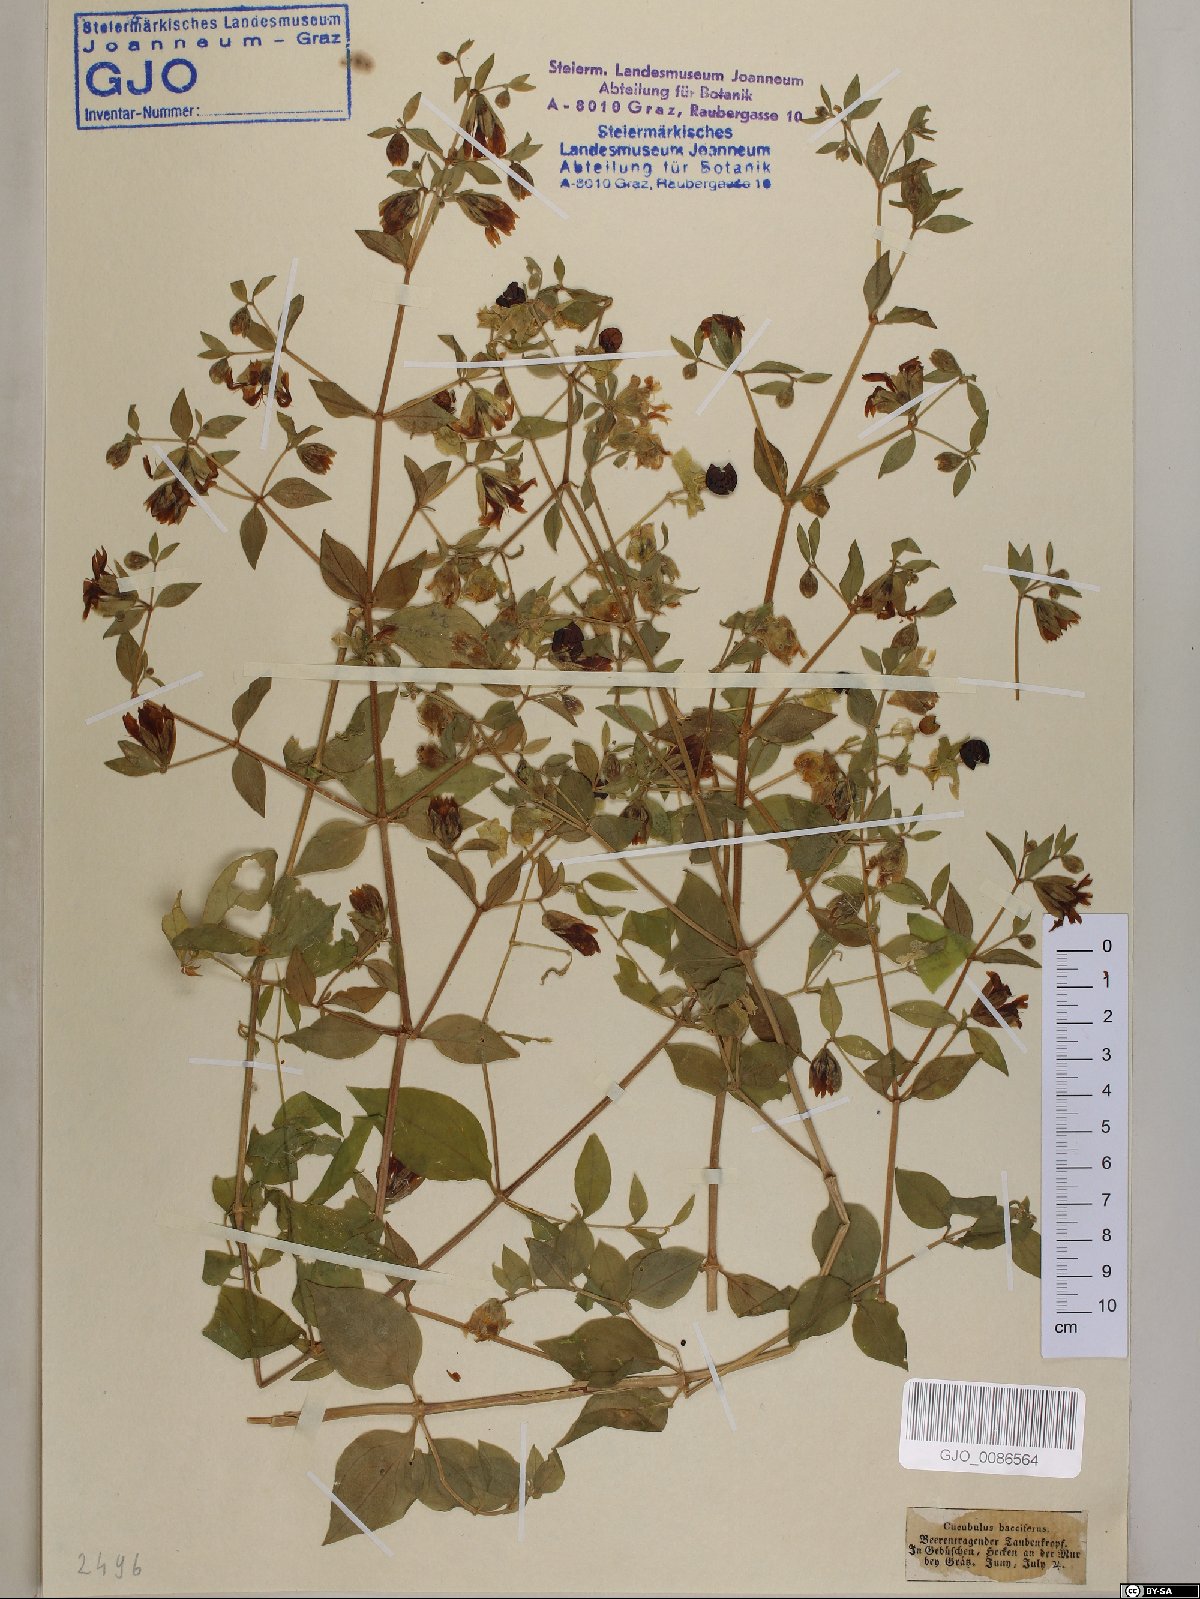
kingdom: Plantae
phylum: Tracheophyta
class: Magnoliopsida
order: Caryophyllales
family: Caryophyllaceae
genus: Silene
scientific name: Silene baccifera
